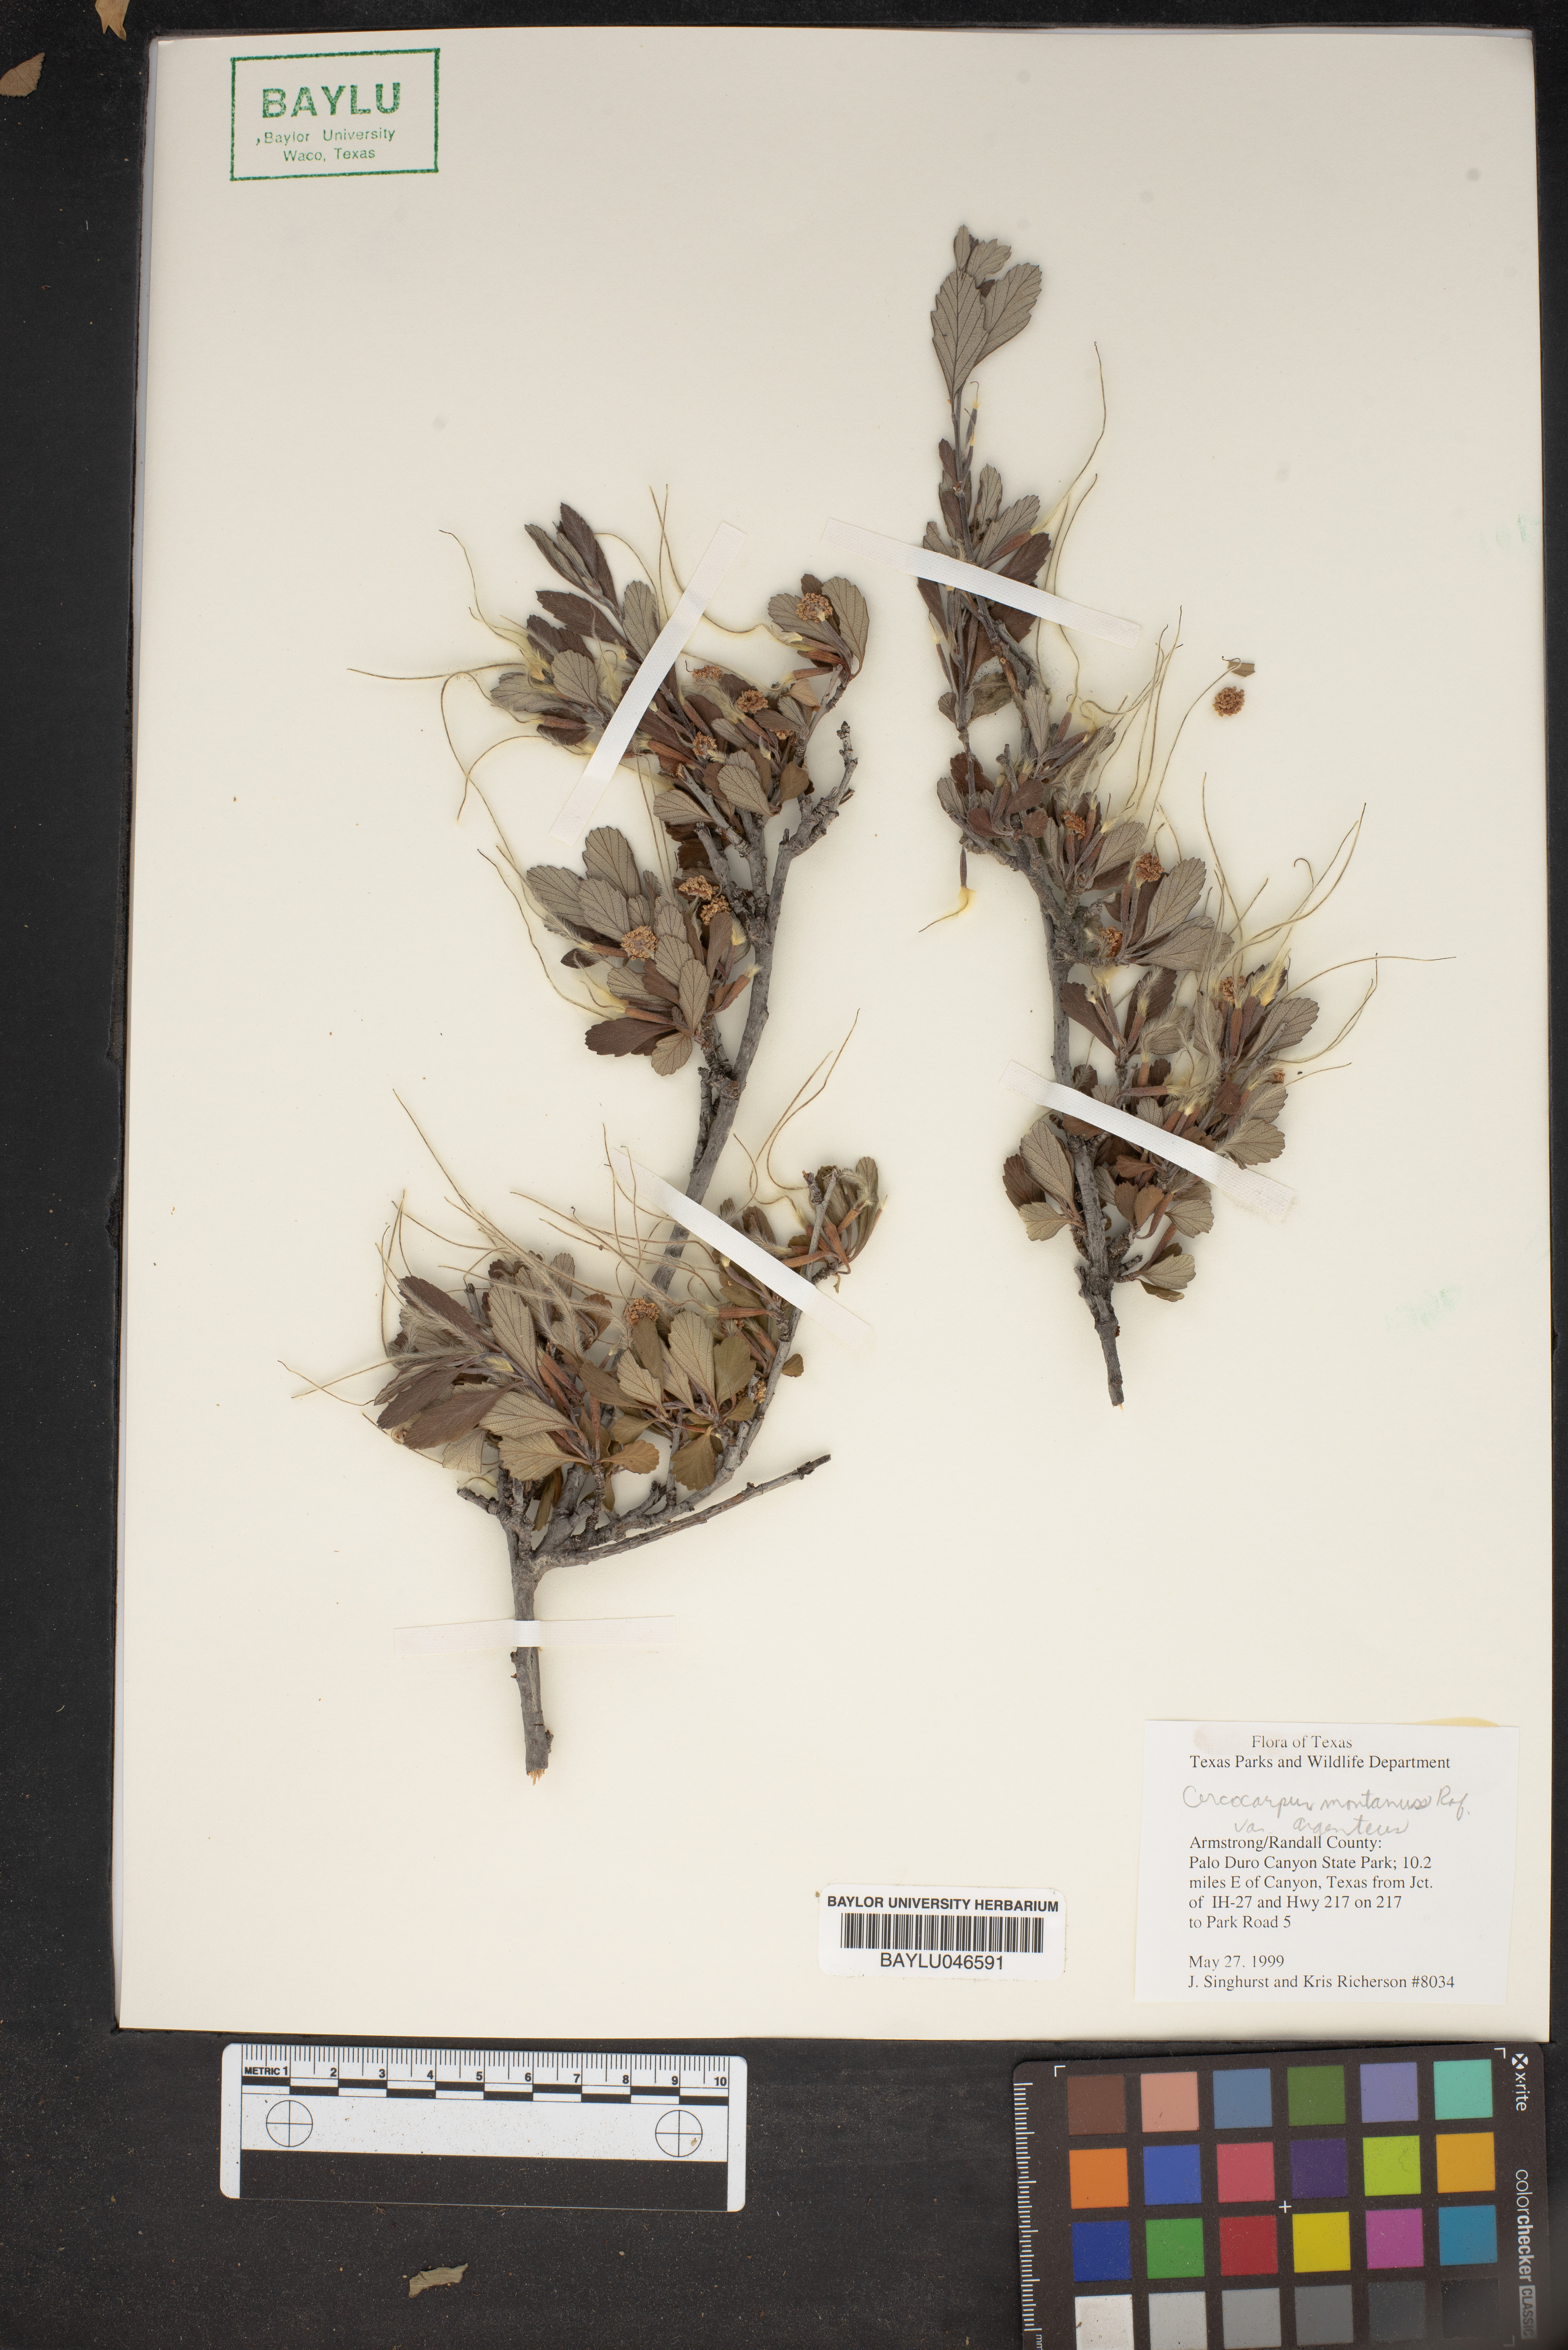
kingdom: Plantae
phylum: Tracheophyta
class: Magnoliopsida
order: Rosales
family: Rosaceae
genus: Cercocarpus
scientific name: Cercocarpus intricatus
